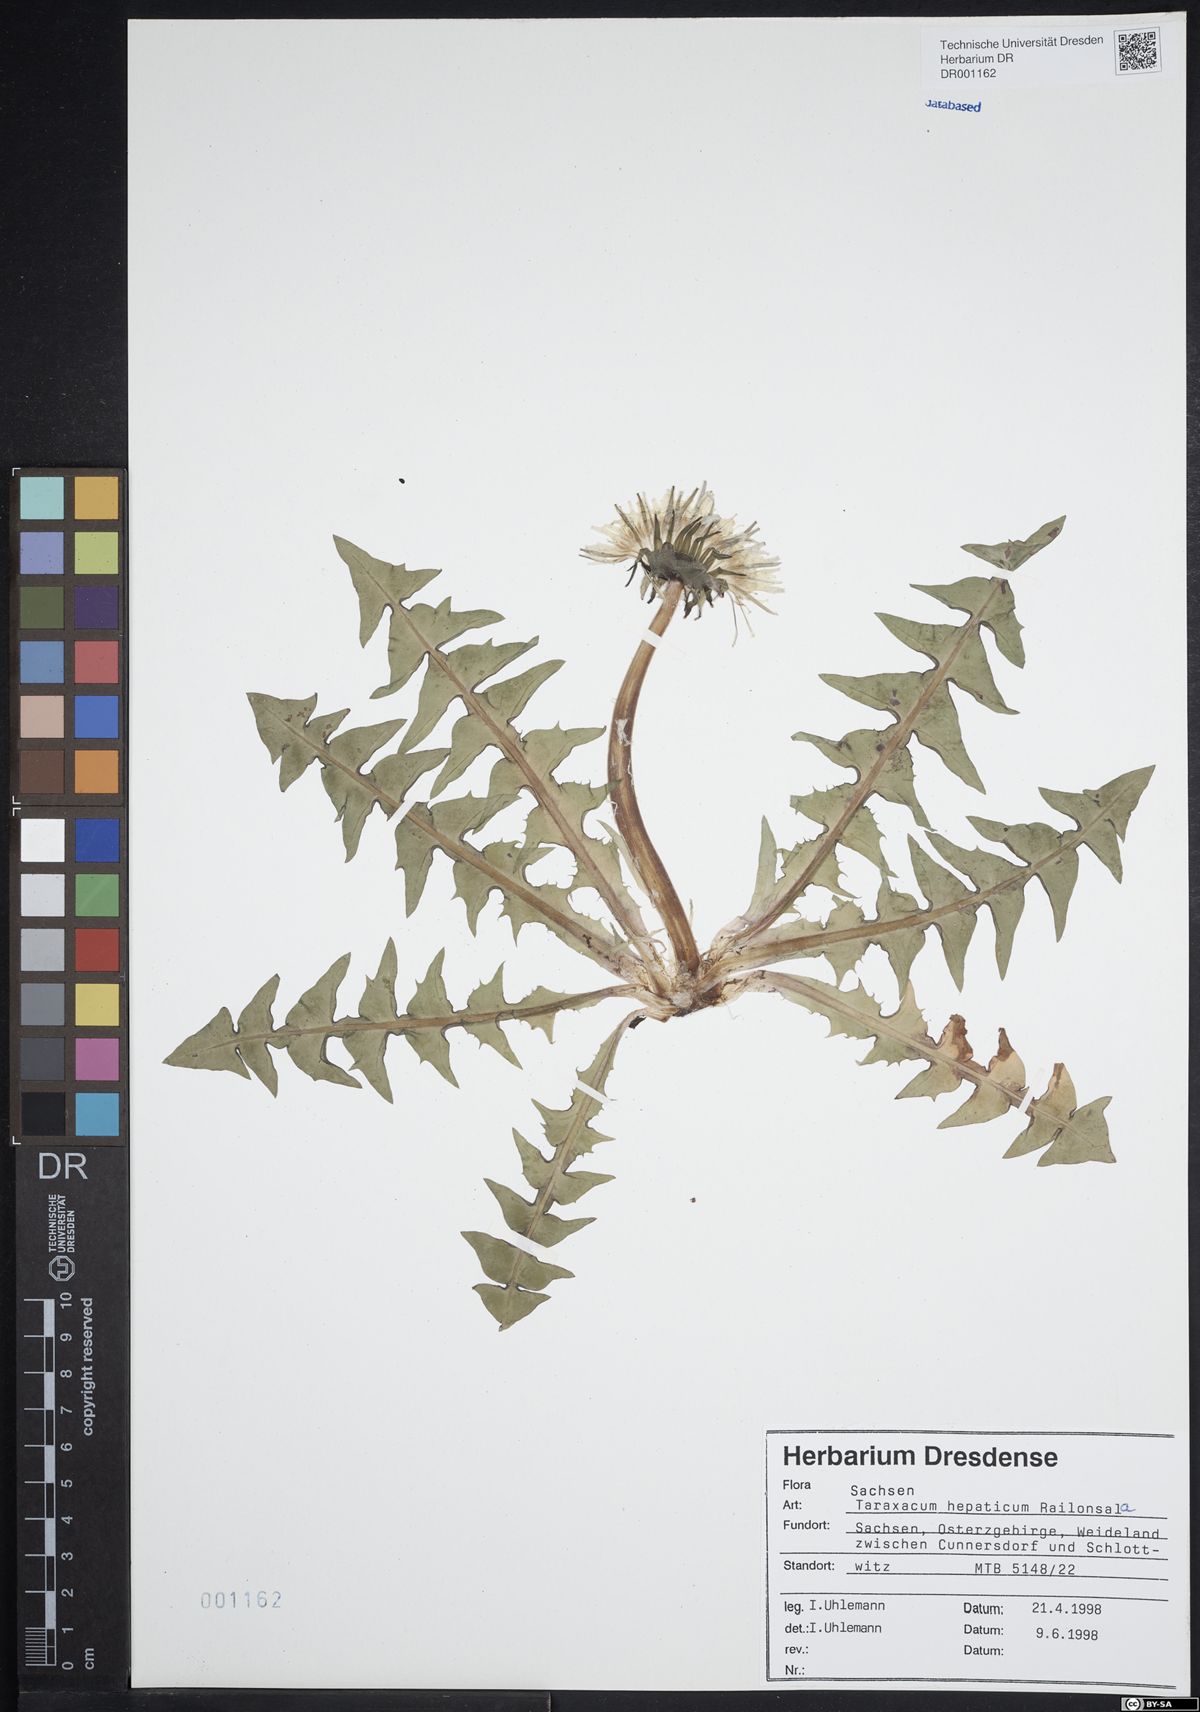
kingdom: Plantae
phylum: Tracheophyta
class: Magnoliopsida
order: Asterales
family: Asteraceae
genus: Taraxacum
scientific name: Taraxacum hepaticum
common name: Regular-lobed dandelion
